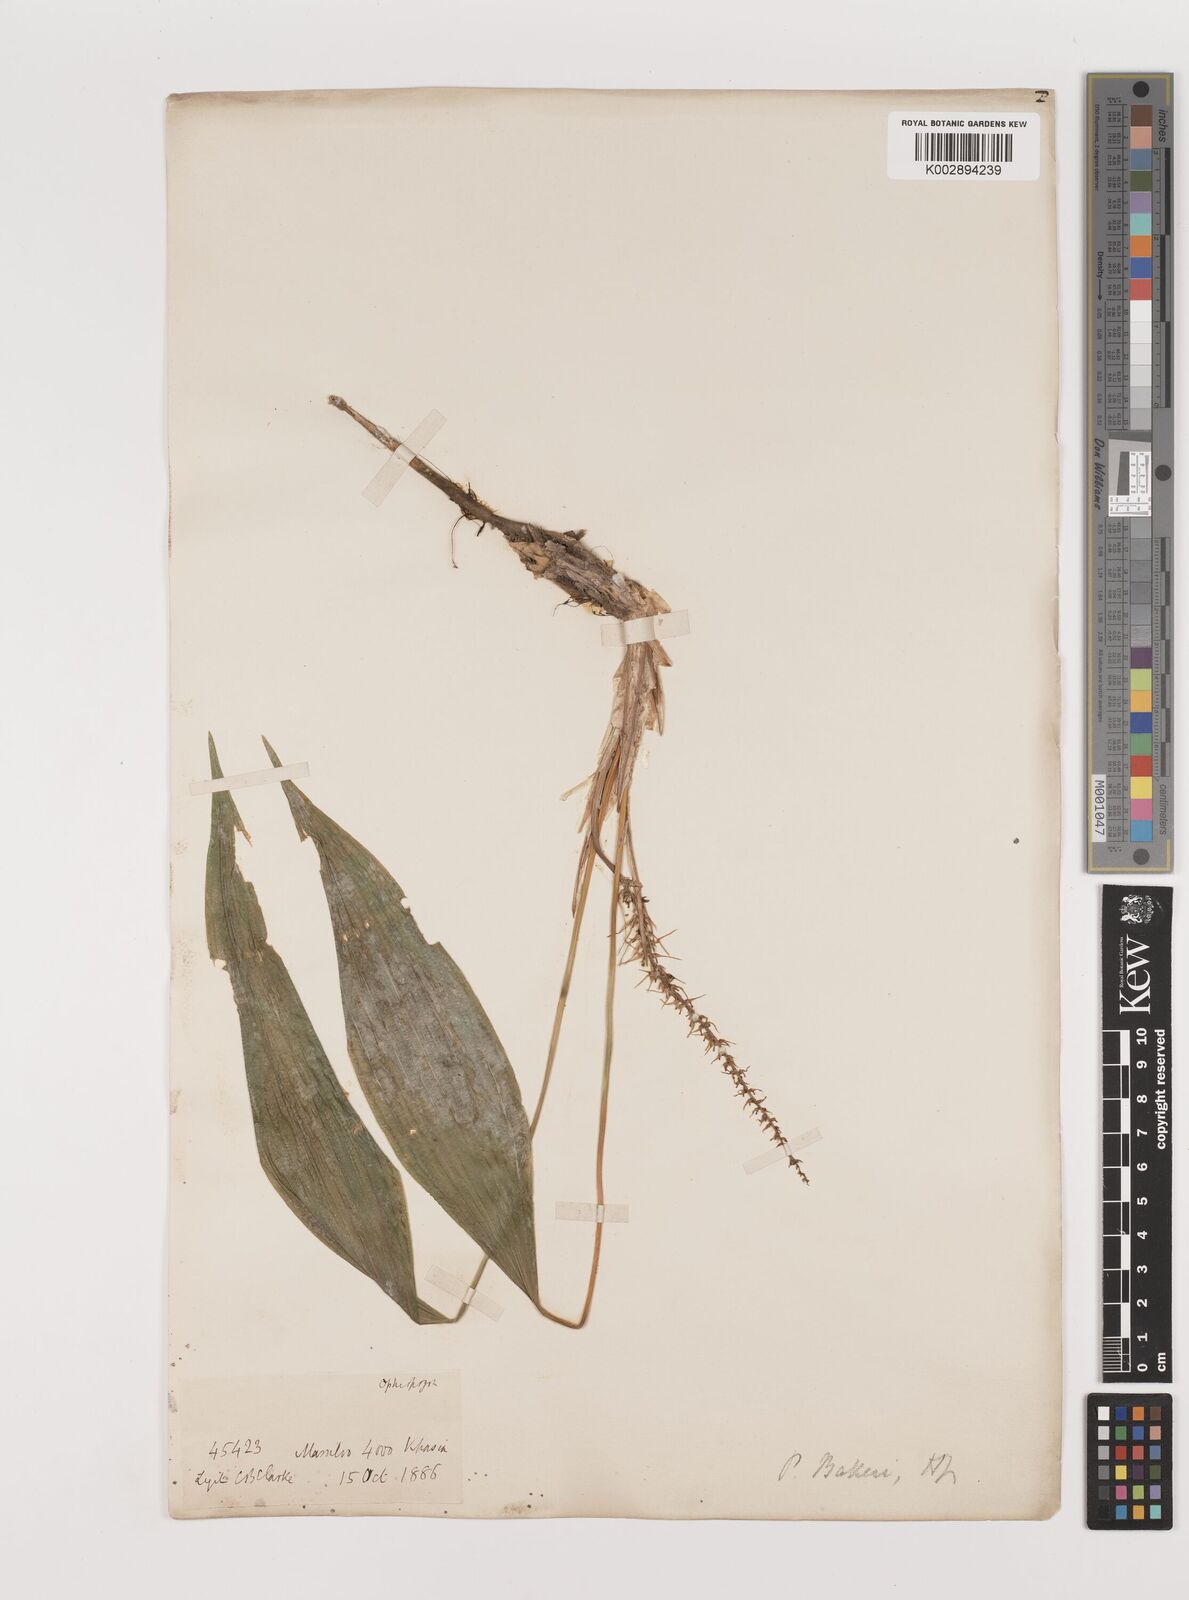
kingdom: Plantae
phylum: Tracheophyta
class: Liliopsida
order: Asparagales
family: Asparagaceae
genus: Peliosanthes
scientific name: Peliosanthes teta
